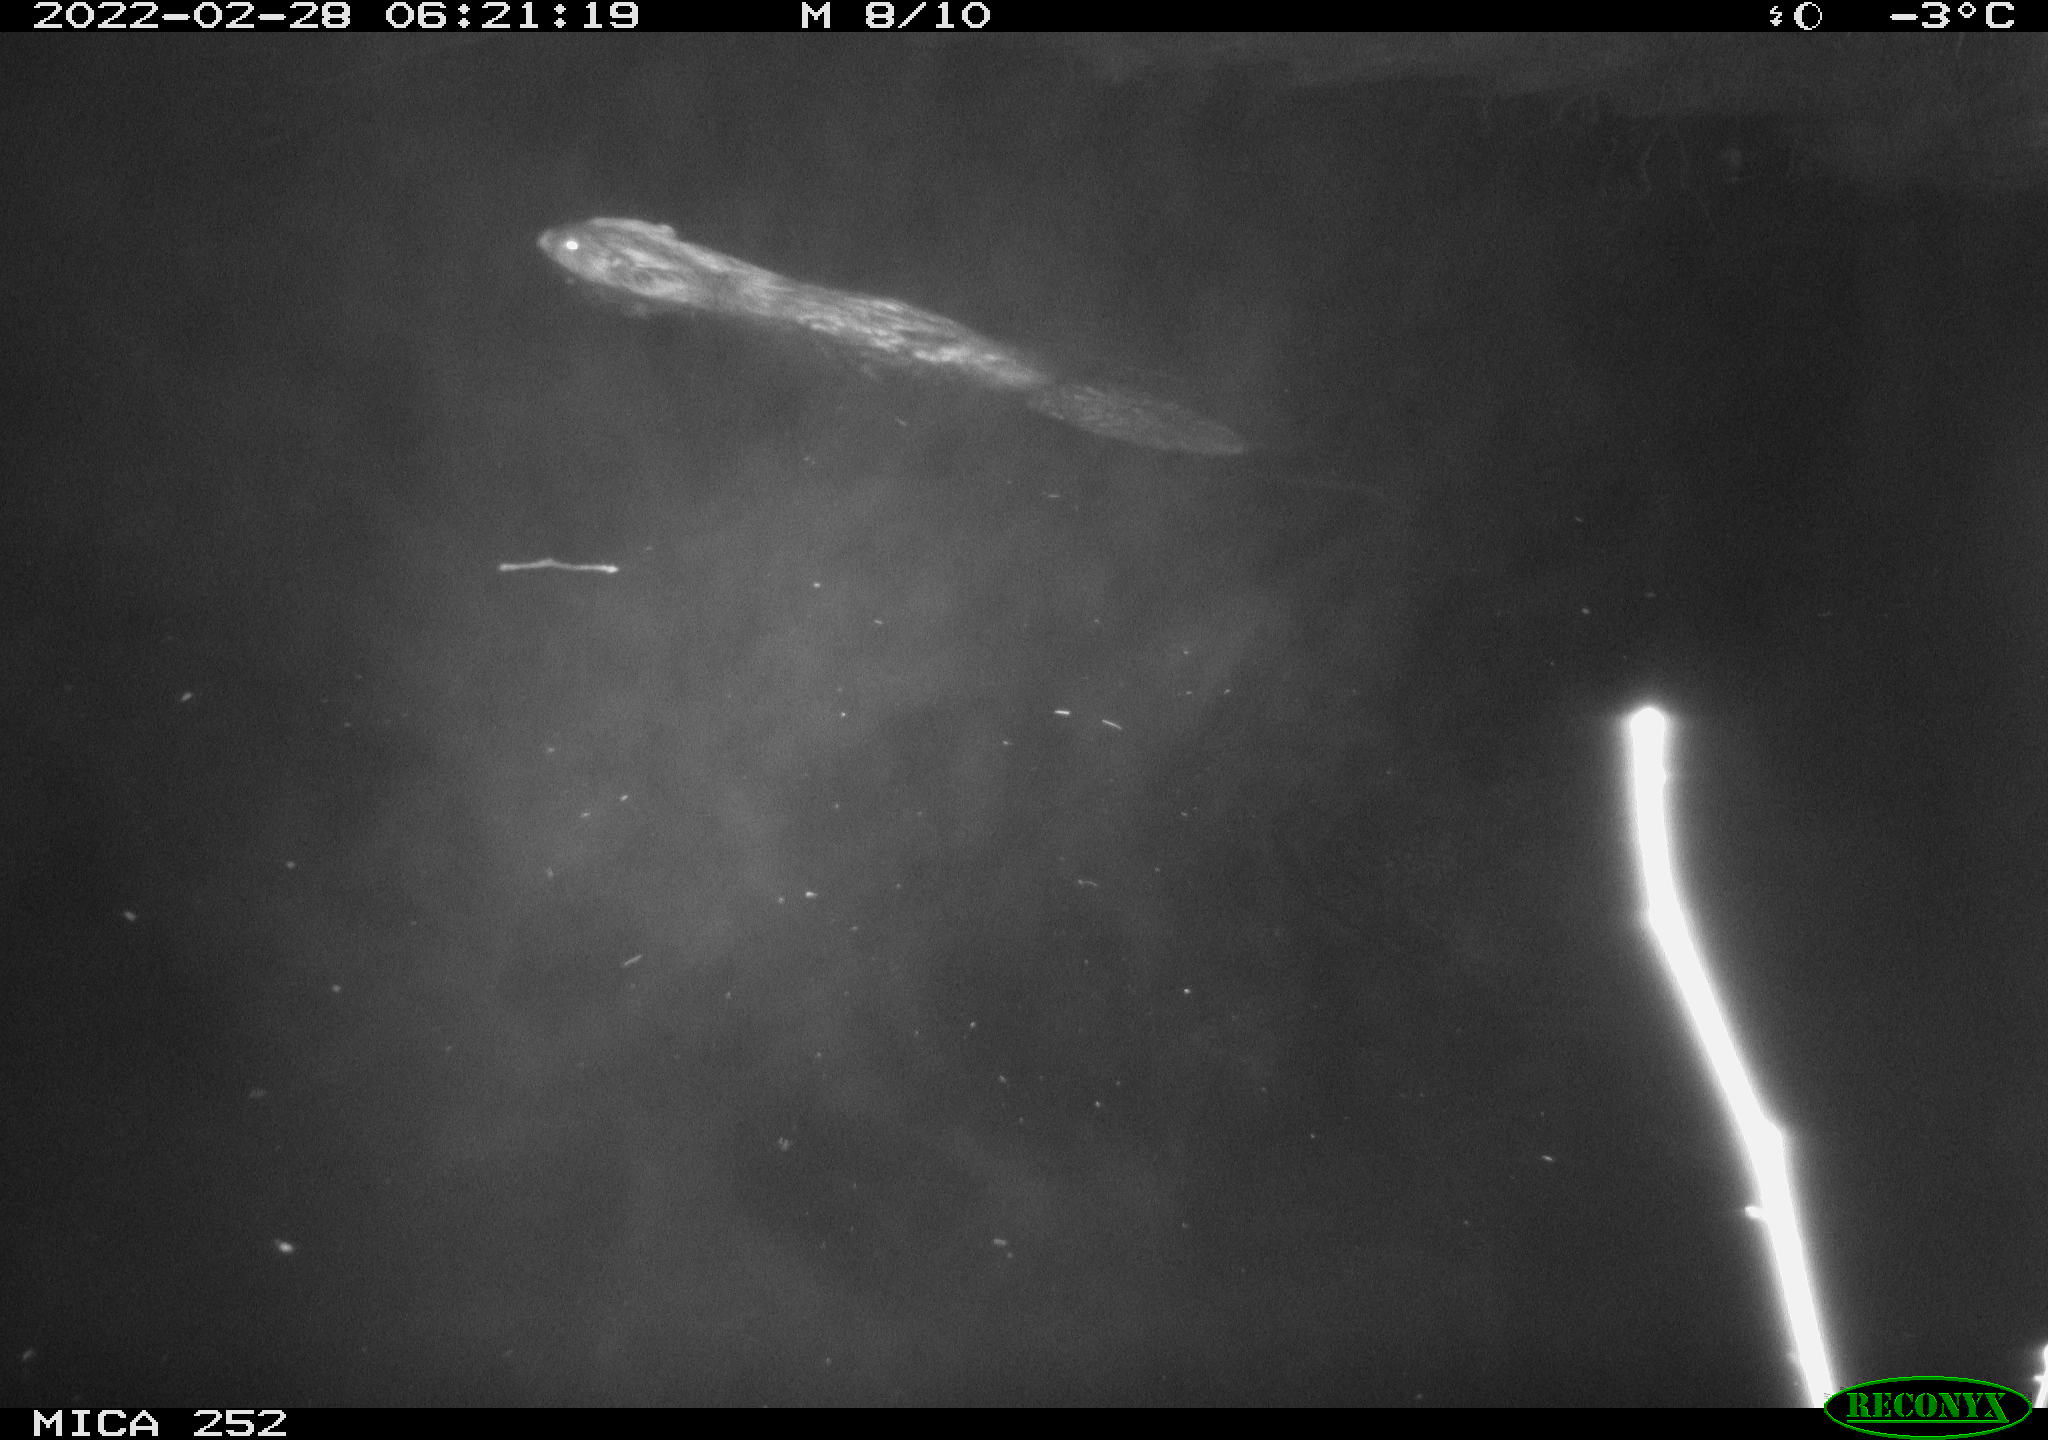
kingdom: Animalia
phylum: Chordata
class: Mammalia
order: Rodentia
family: Castoridae
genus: Castor
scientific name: Castor fiber
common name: Eurasian beaver
